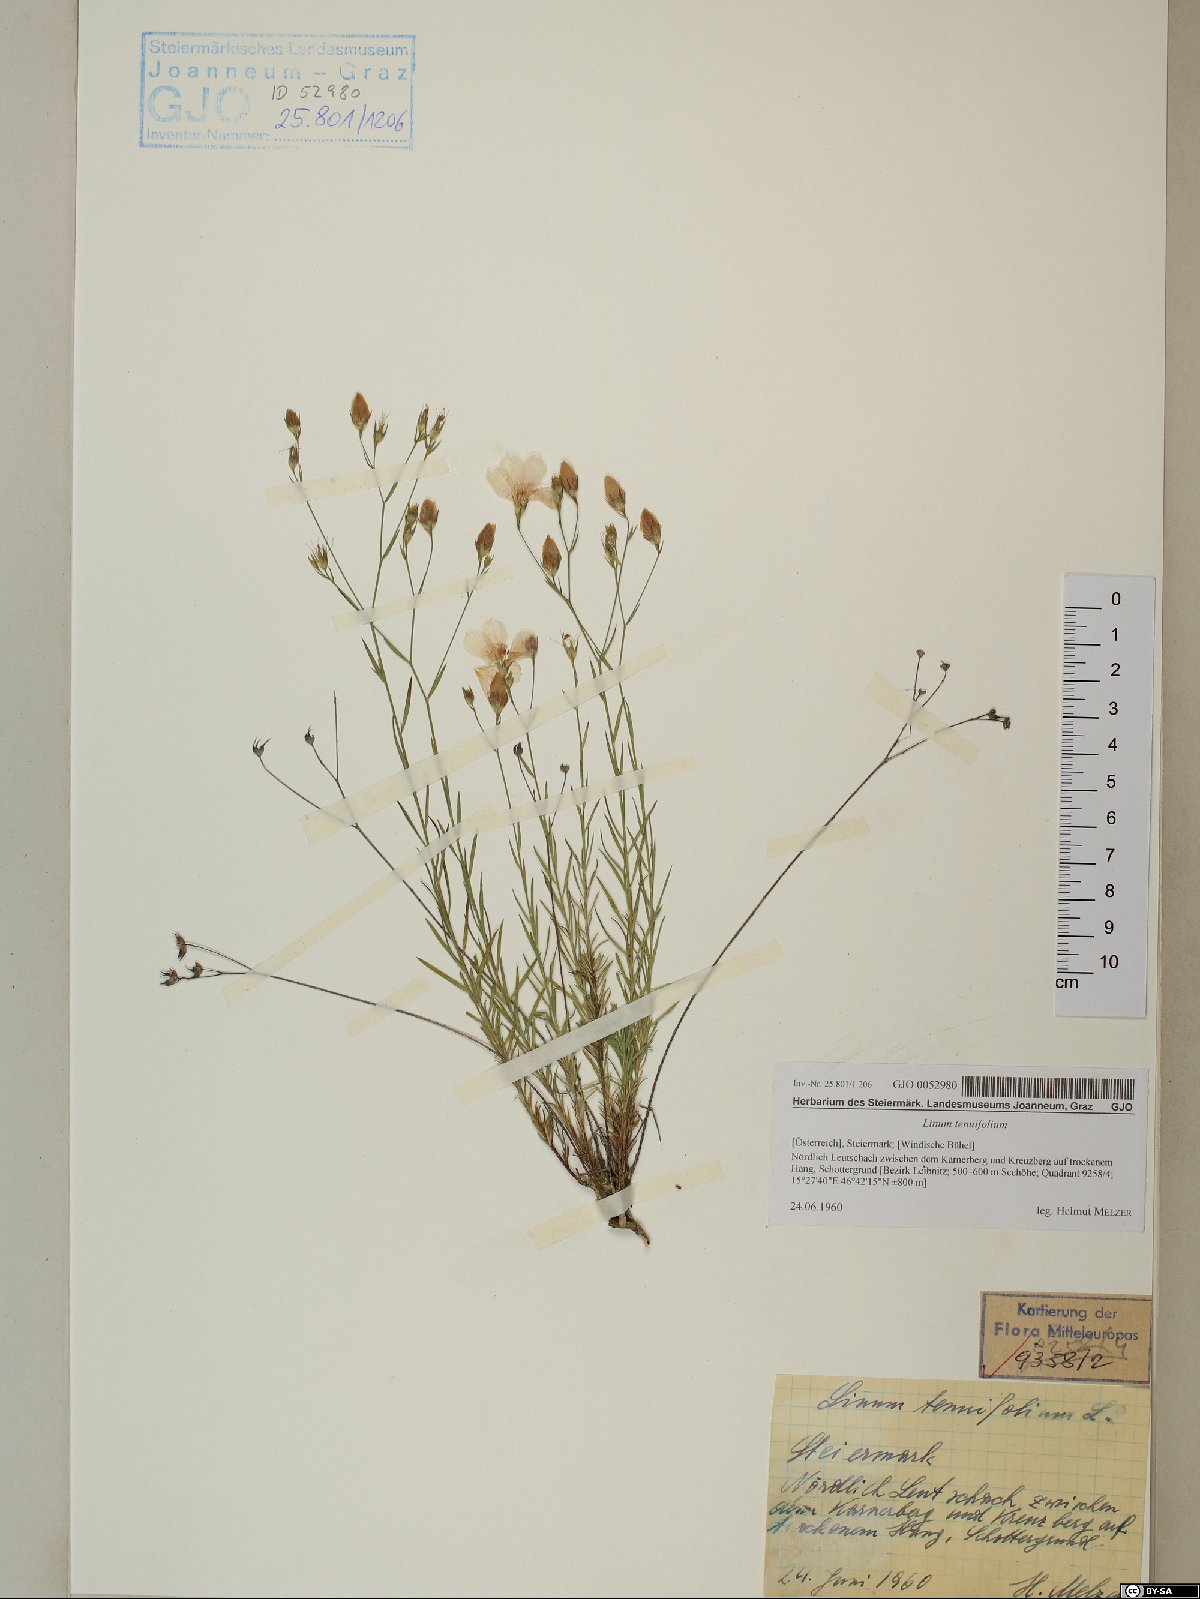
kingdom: Plantae
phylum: Tracheophyta
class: Magnoliopsida
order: Malpighiales
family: Linaceae
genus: Linum
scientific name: Linum tenuifolium
